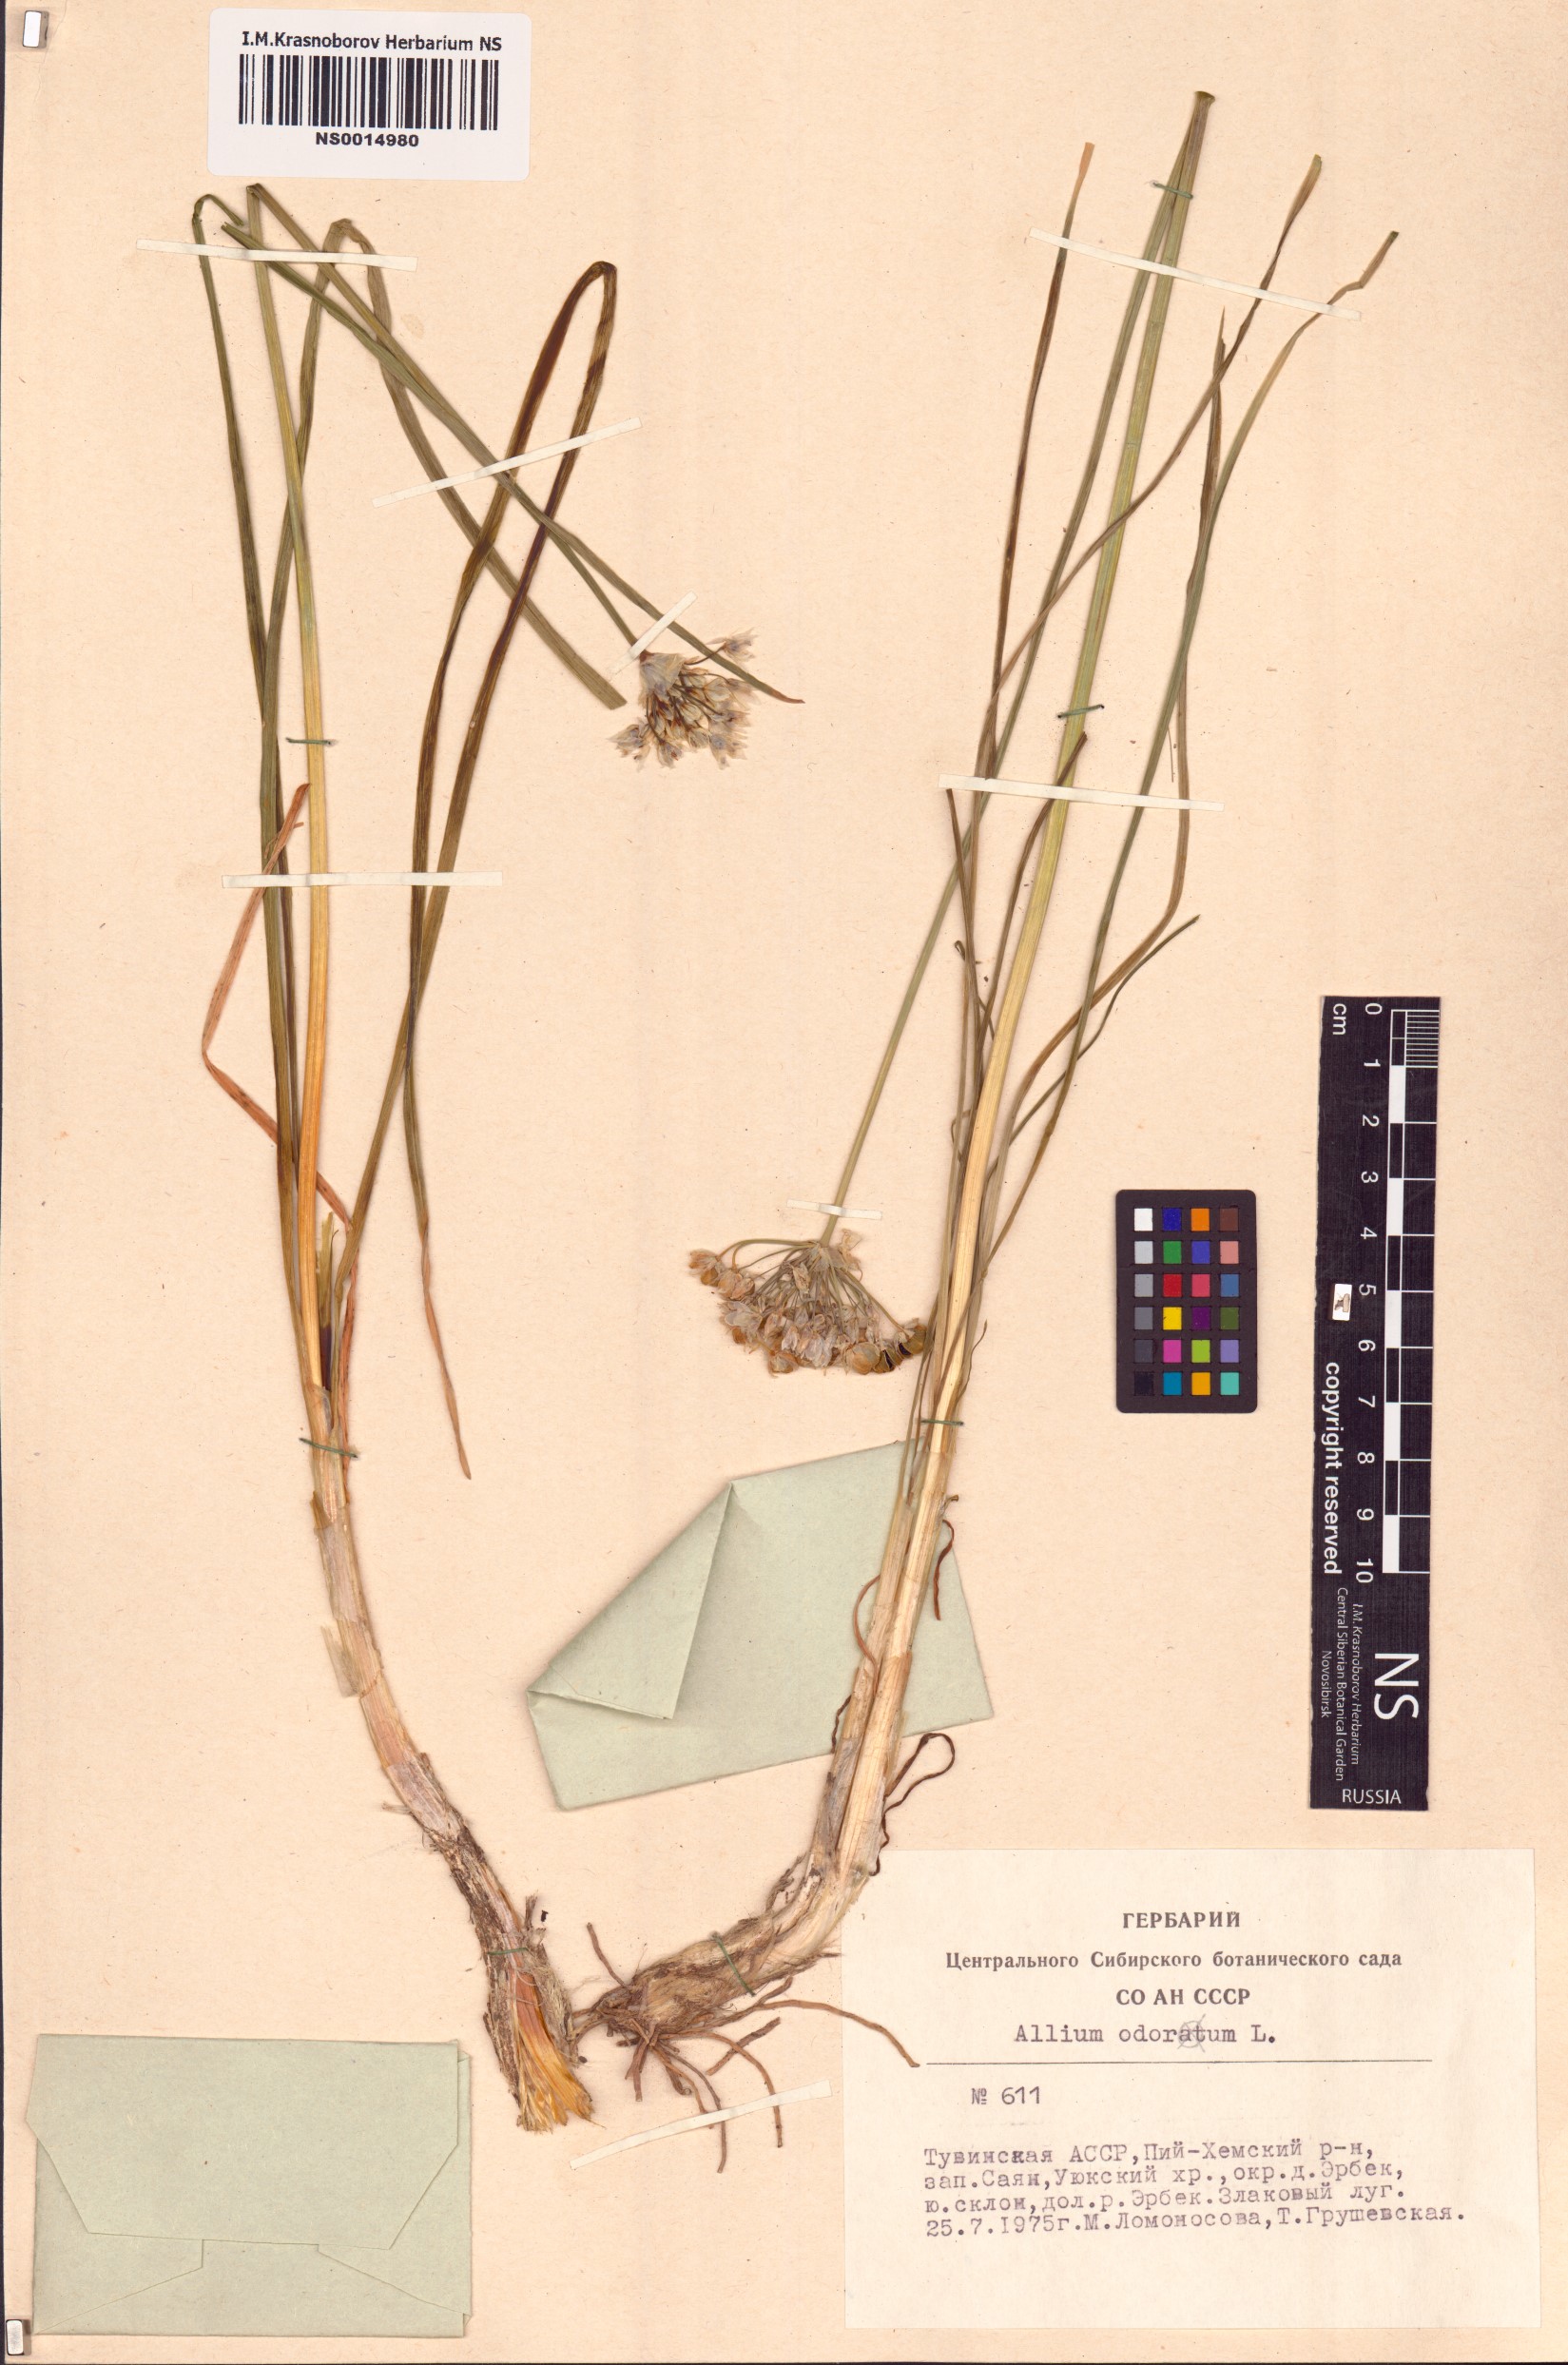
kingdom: Plantae
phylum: Tracheophyta
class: Liliopsida
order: Asparagales
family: Amaryllidaceae
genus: Allium
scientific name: Allium ramosum
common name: Fragrant garlic
